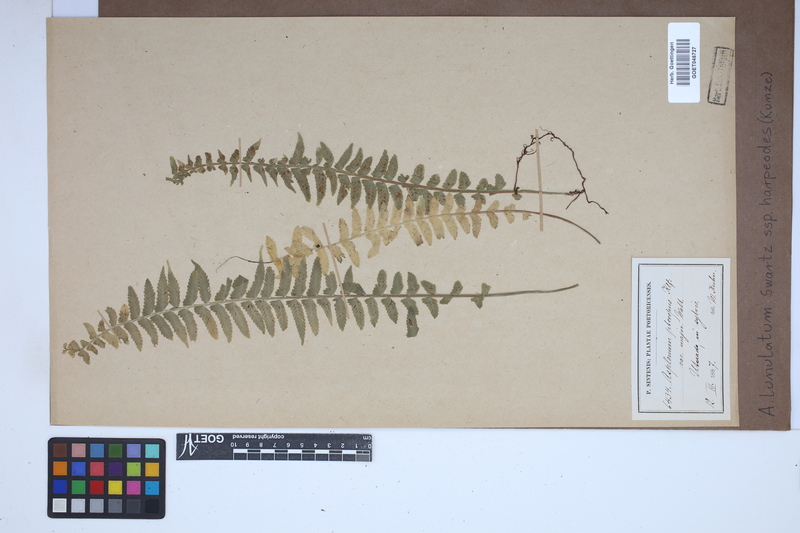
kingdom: Plantae
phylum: Tracheophyta
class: Polypodiopsida
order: Polypodiales
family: Aspleniaceae
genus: Asplenium
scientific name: Asplenium harpeodes
